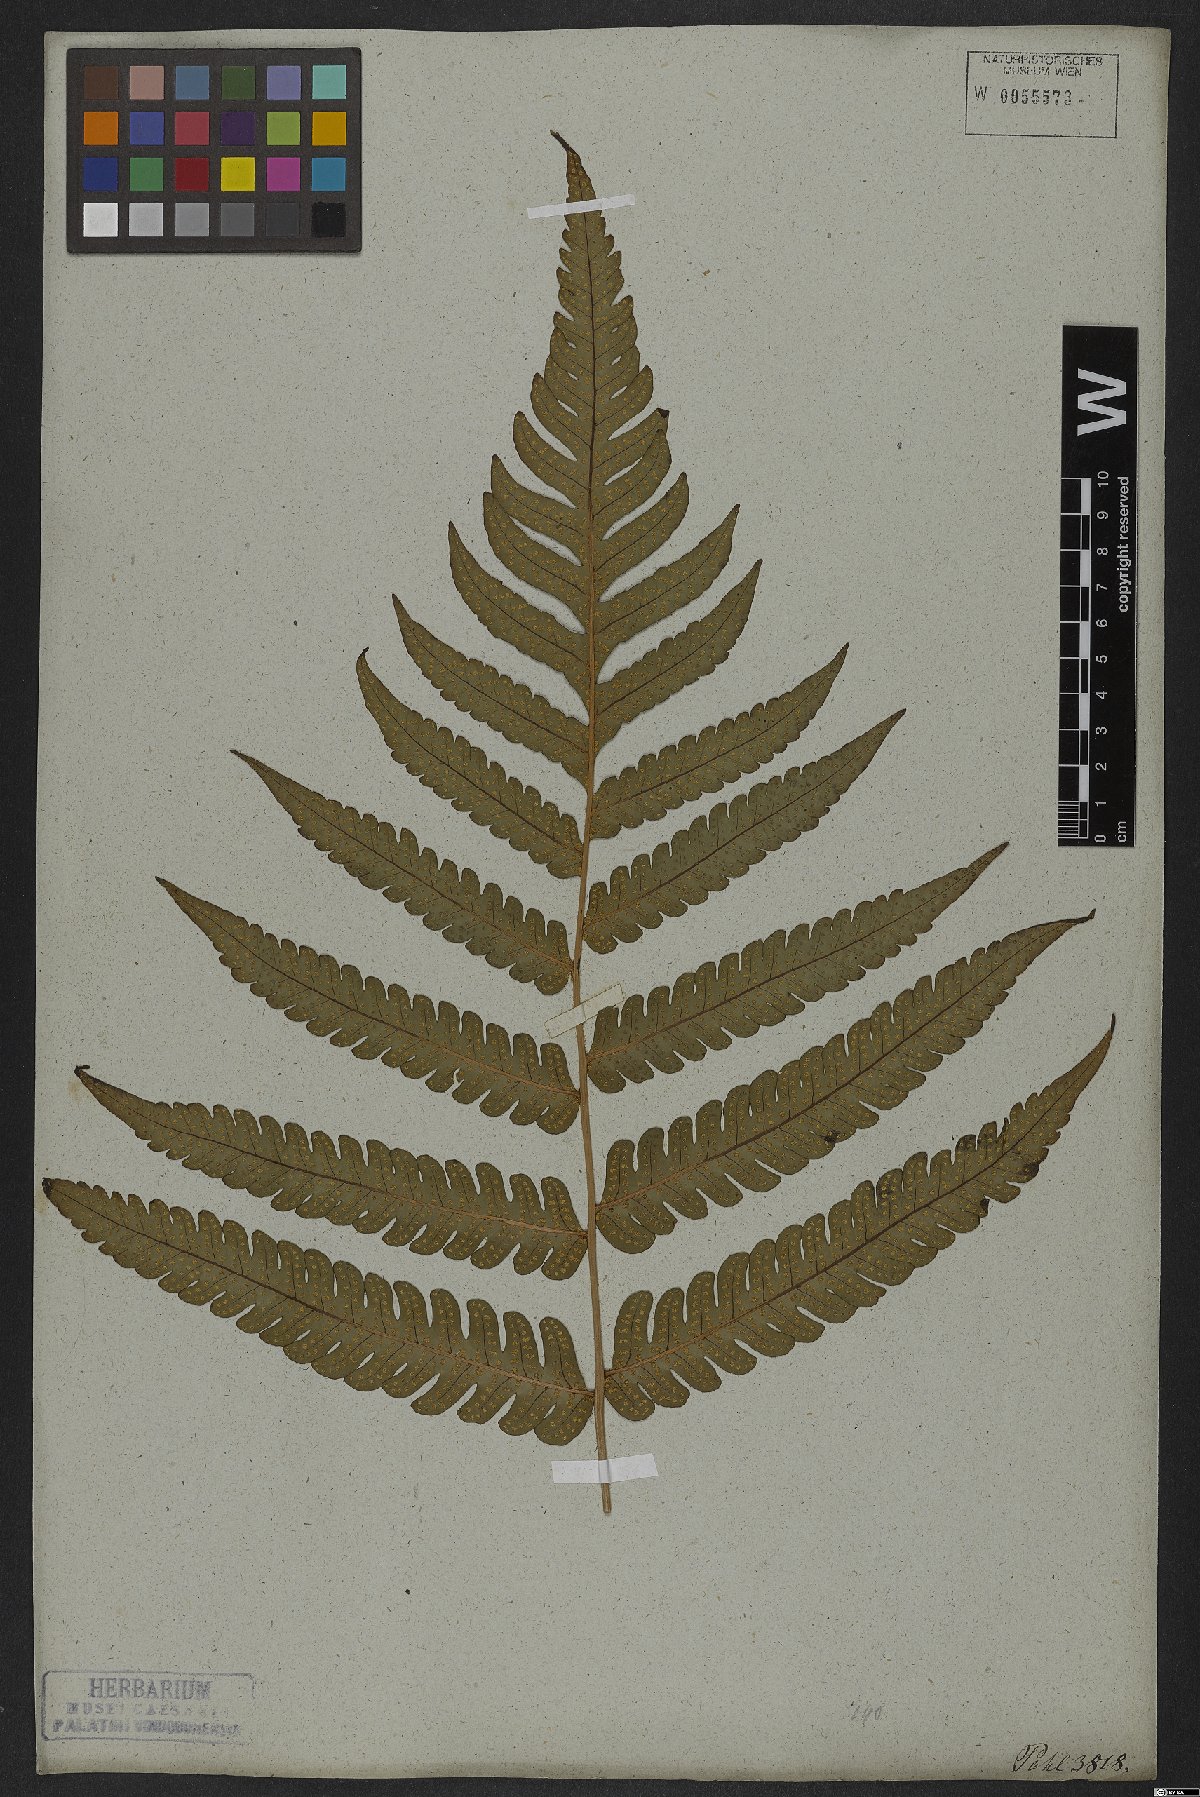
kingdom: Plantae
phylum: Tracheophyta
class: Polypodiopsida
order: Polypodiales
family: Dryopteridaceae
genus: Megalastrum
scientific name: Megalastrum grande
